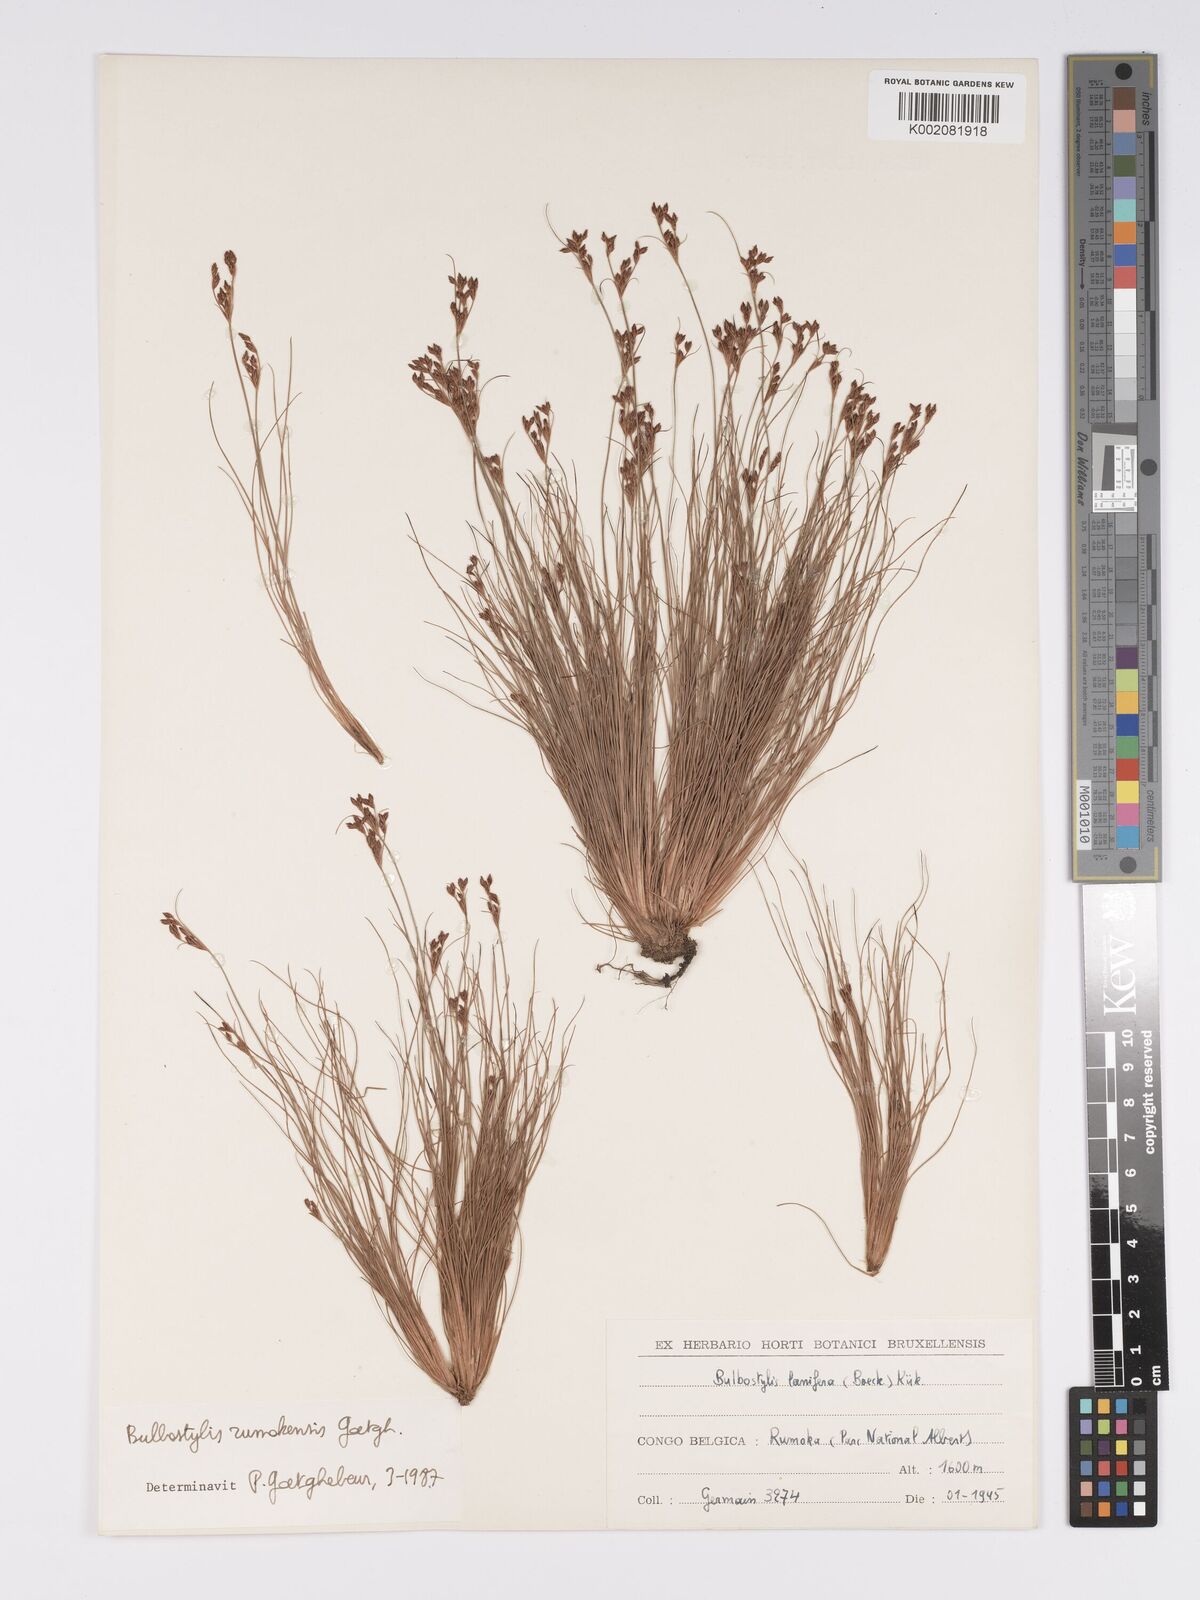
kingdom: Plantae
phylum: Tracheophyta
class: Liliopsida
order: Poales
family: Cyperaceae
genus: Bulbostylis
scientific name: Bulbostylis rumokensis
